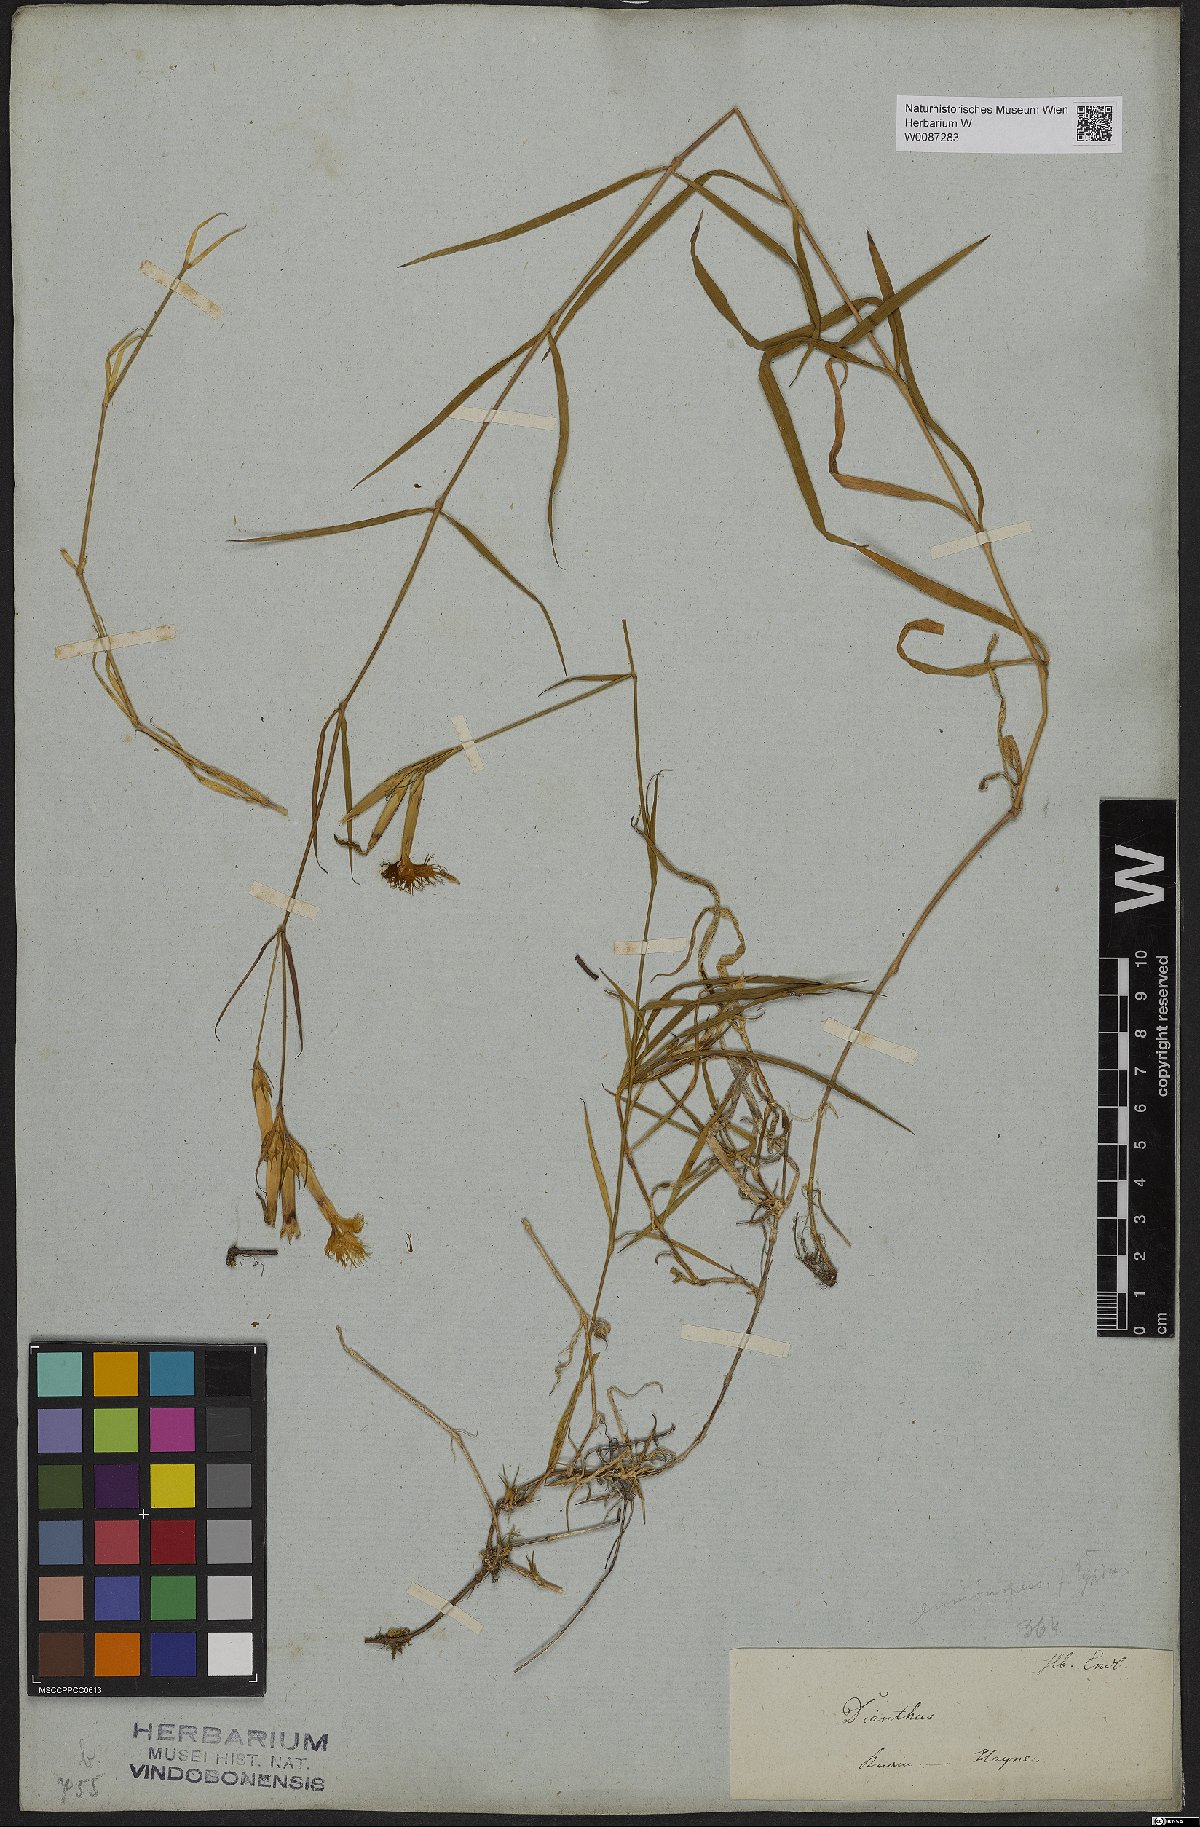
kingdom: Plantae
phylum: Tracheophyta
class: Magnoliopsida
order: Caryophyllales
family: Caryophyllaceae
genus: Dianthus
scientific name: Dianthus
